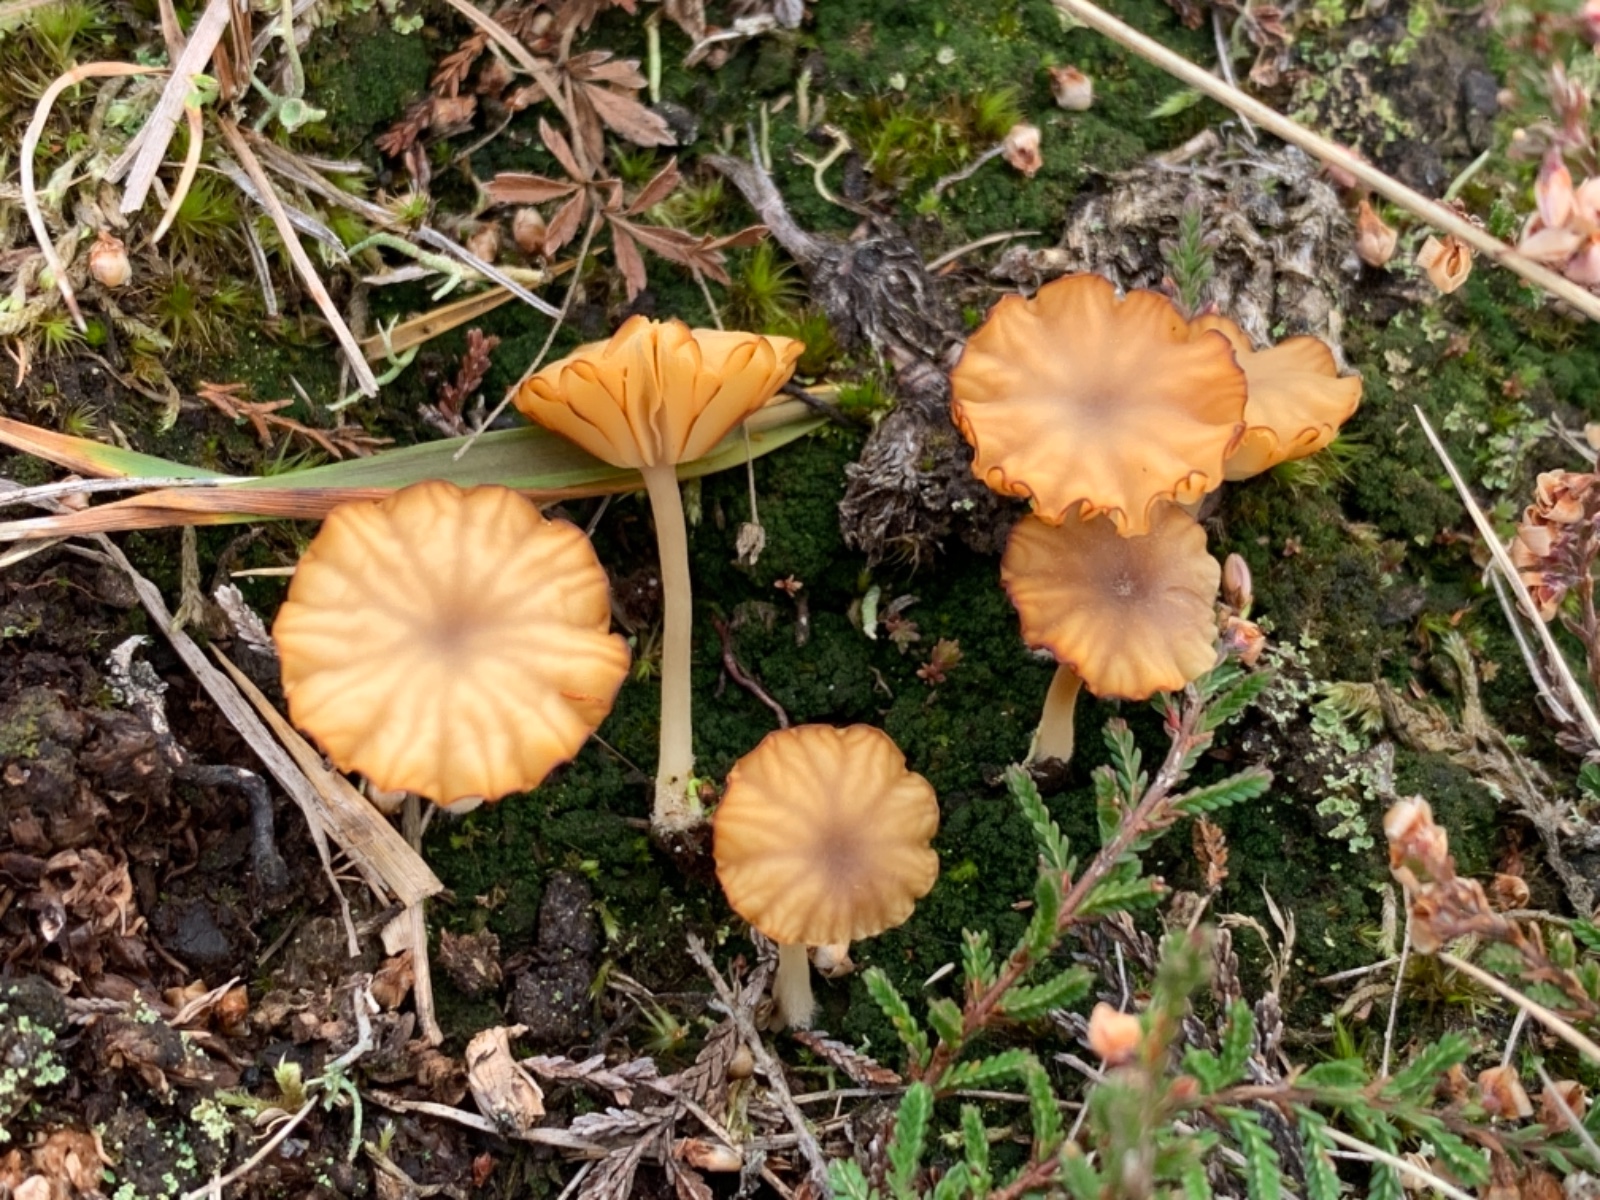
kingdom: Fungi
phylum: Basidiomycota
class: Agaricomycetes
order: Agaricales
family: Hygrophoraceae
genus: Lichenomphalia
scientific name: Lichenomphalia umbellifera
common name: tørve-lavhat
